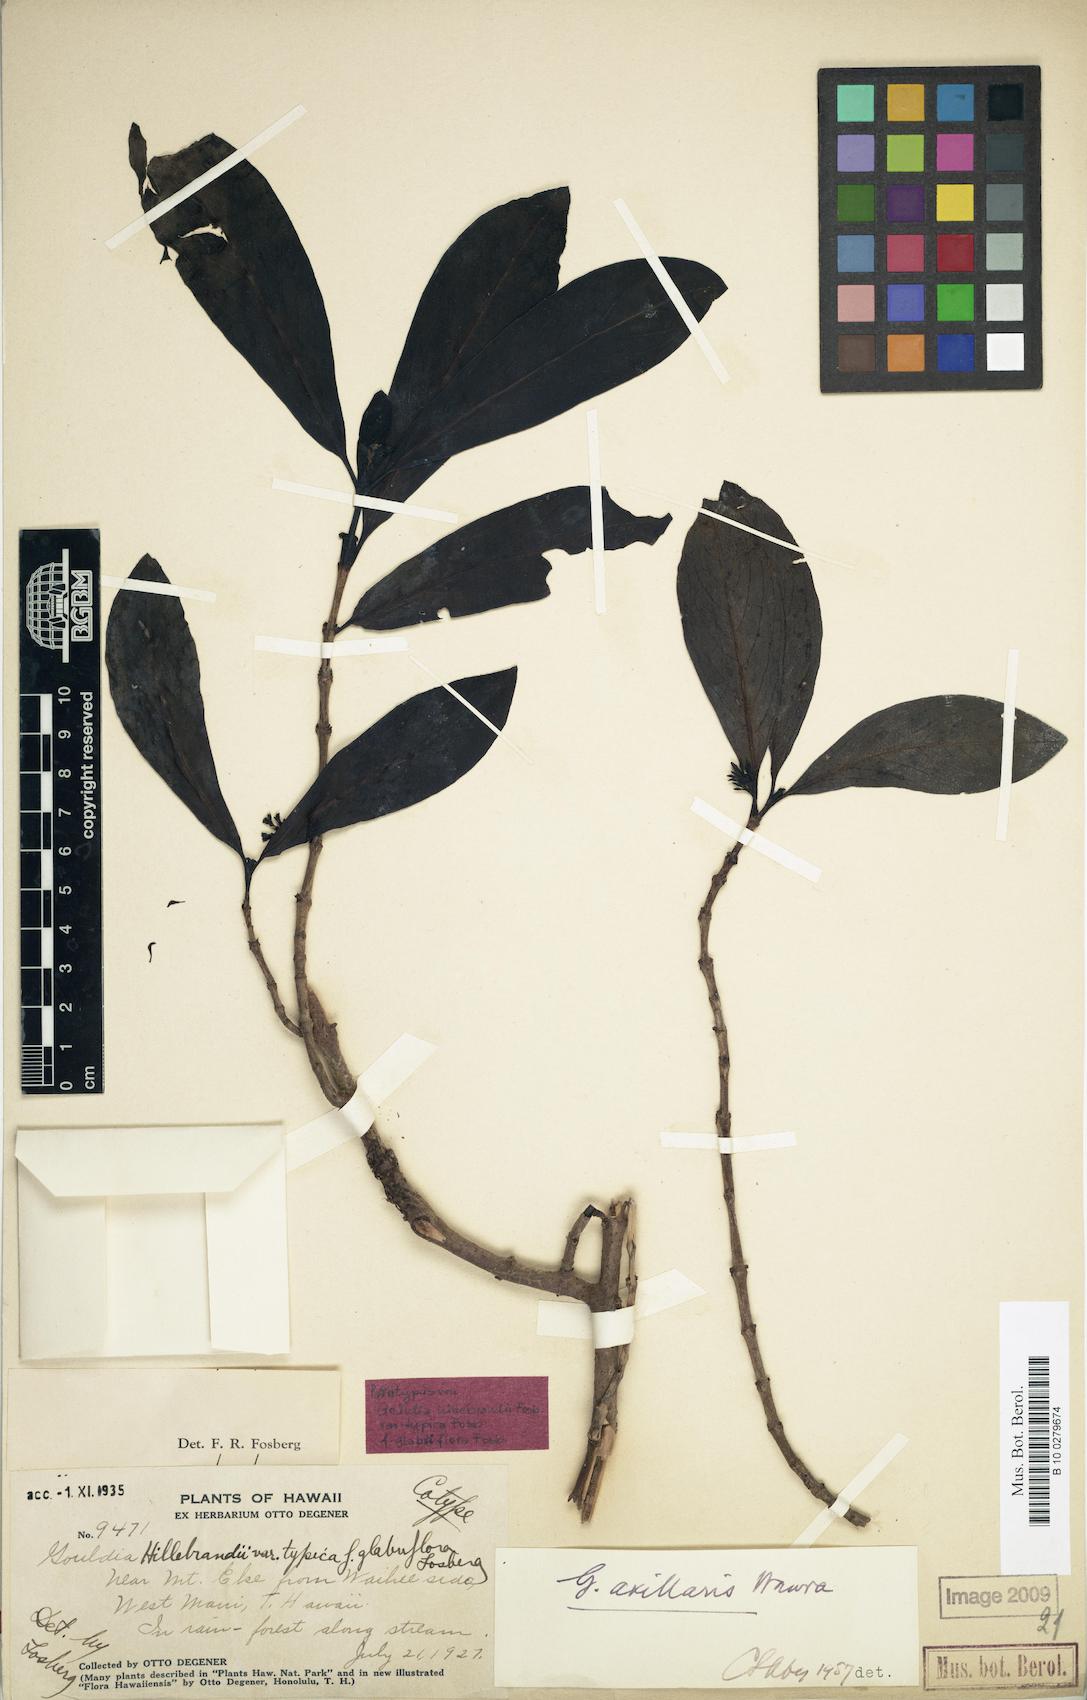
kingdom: Plantae
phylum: Tracheophyta
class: Magnoliopsida
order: Gentianales
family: Rubiaceae
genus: Kadua
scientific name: Kadua axillaris
